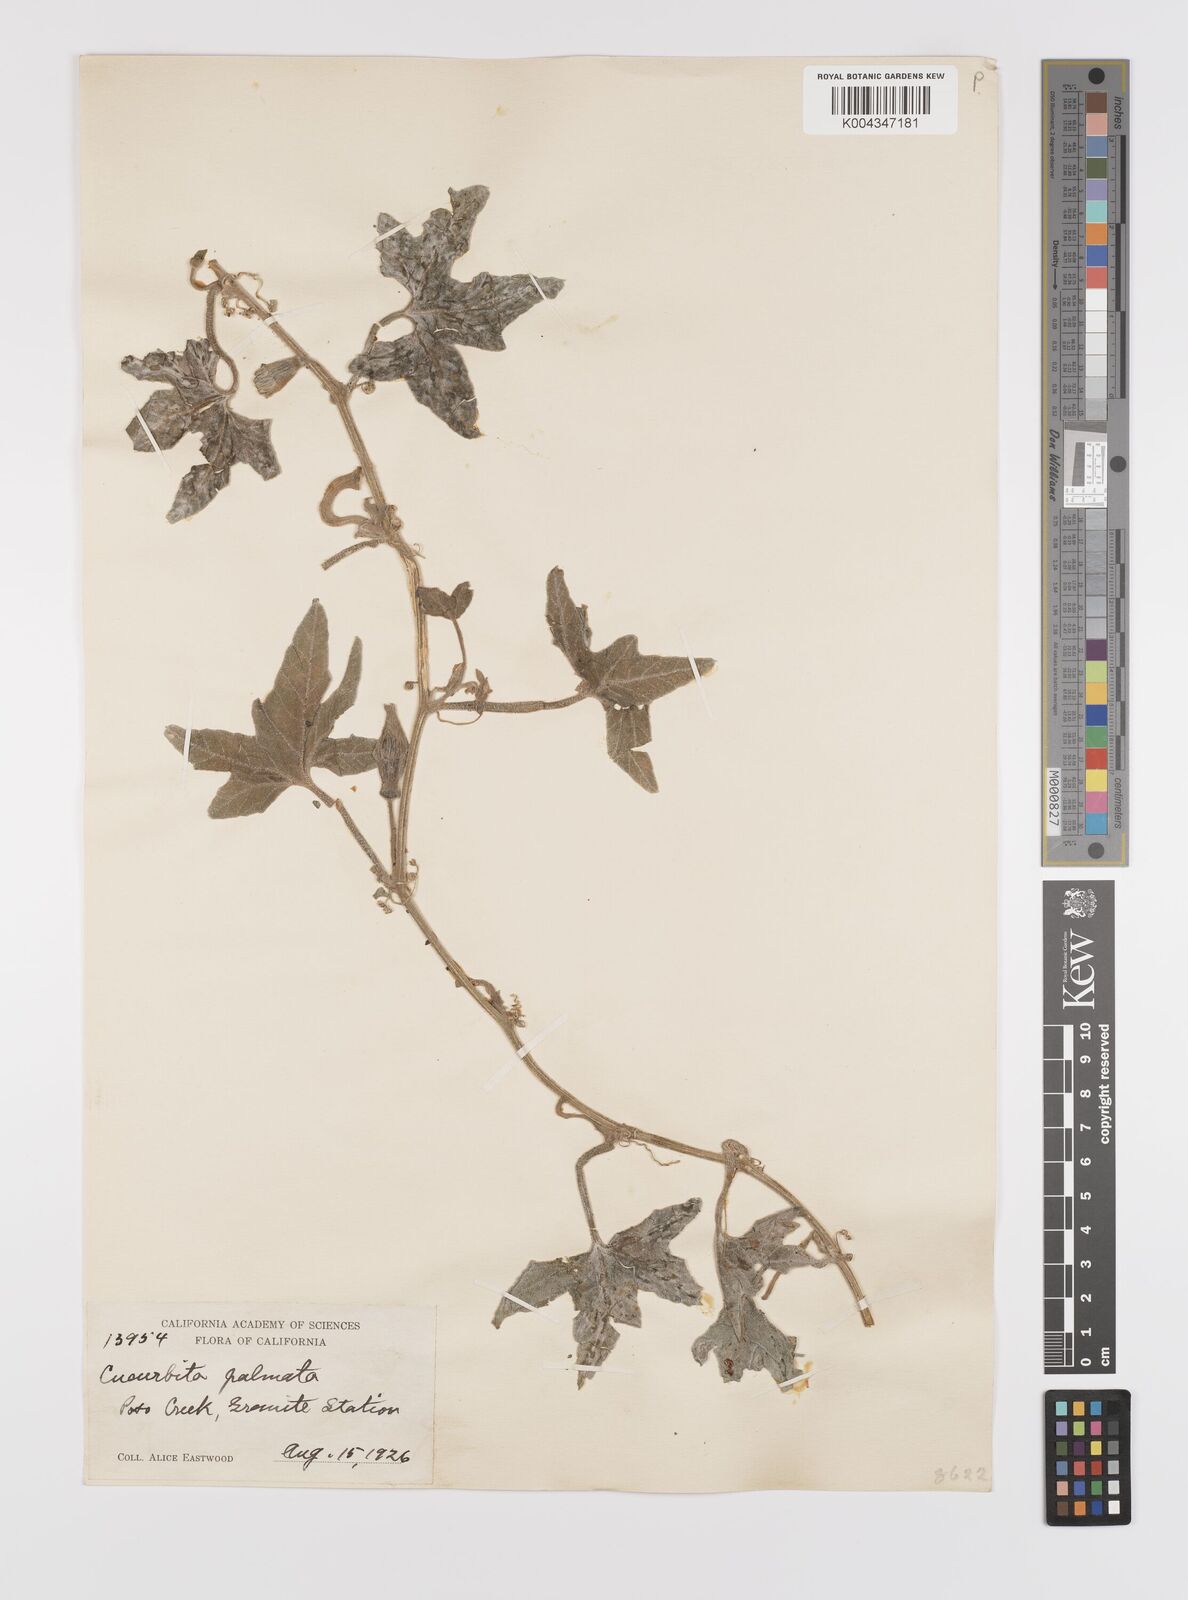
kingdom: Plantae
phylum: Tracheophyta
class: Magnoliopsida
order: Cucurbitales
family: Cucurbitaceae
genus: Cucurbita
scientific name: Cucurbita palmata
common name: Coyote-melon
